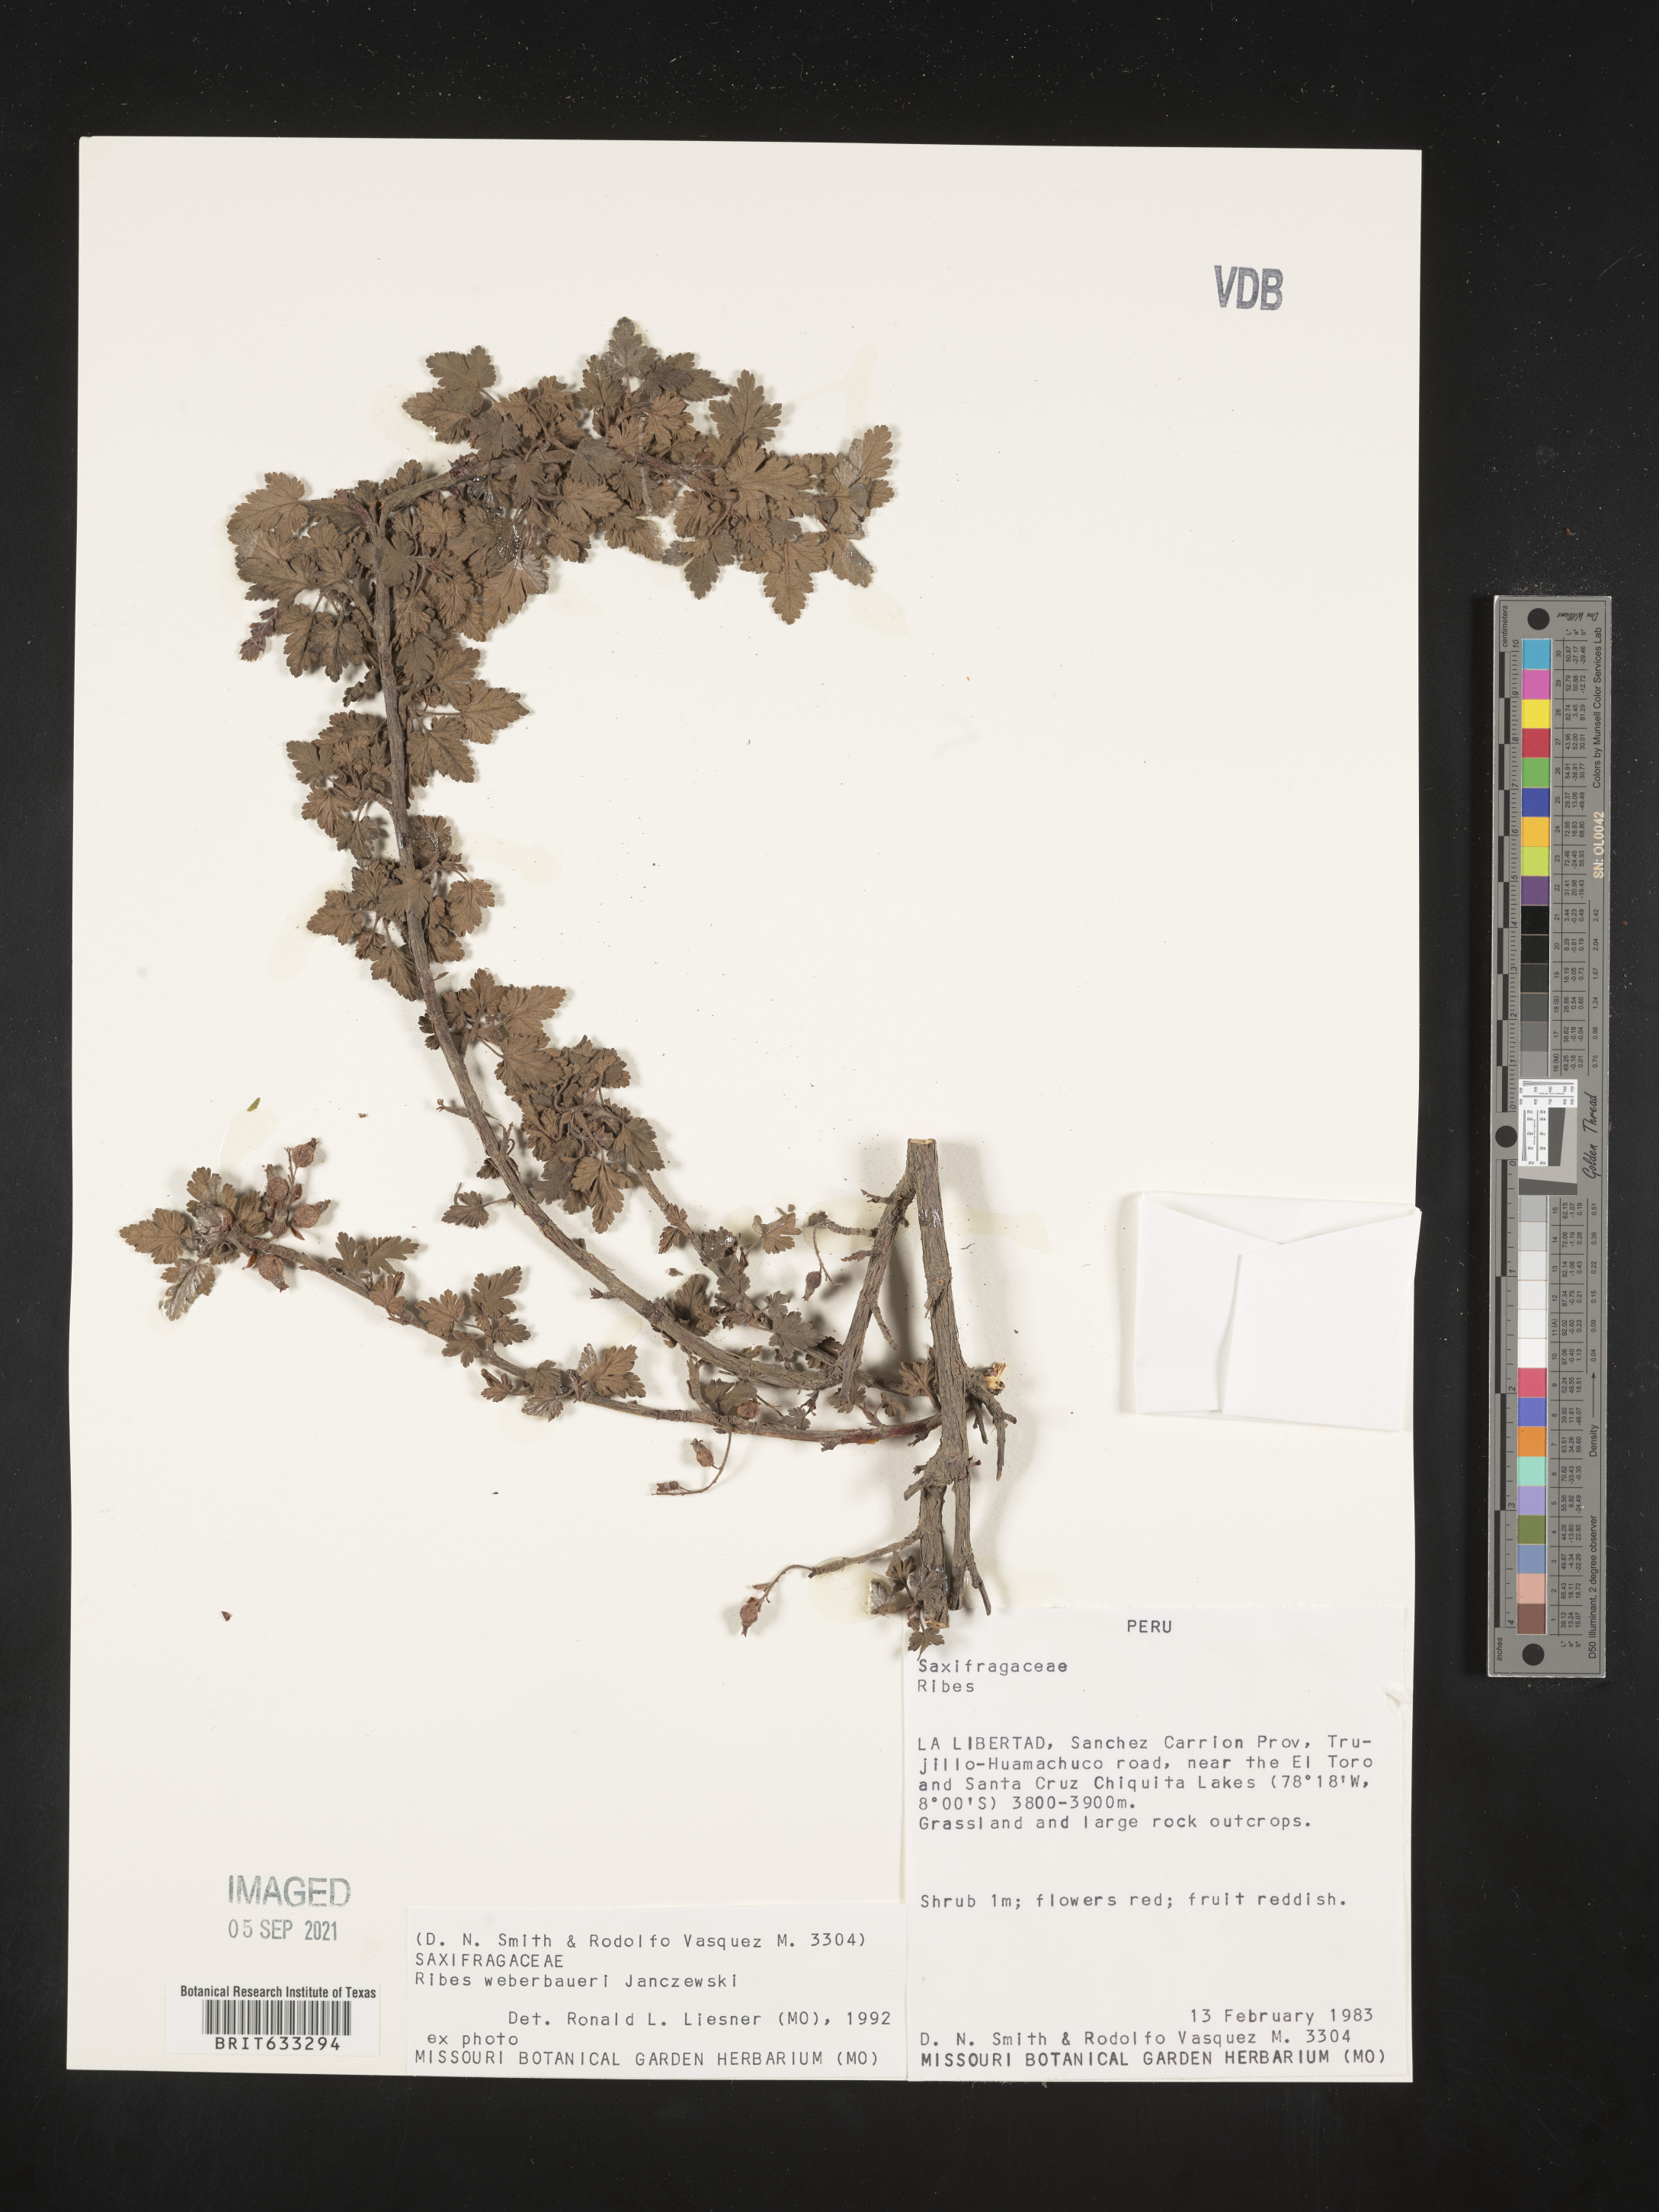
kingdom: Plantae
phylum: Tracheophyta
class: Magnoliopsida
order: Saxifragales
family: Grossulariaceae
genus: Ribes
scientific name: Ribes
